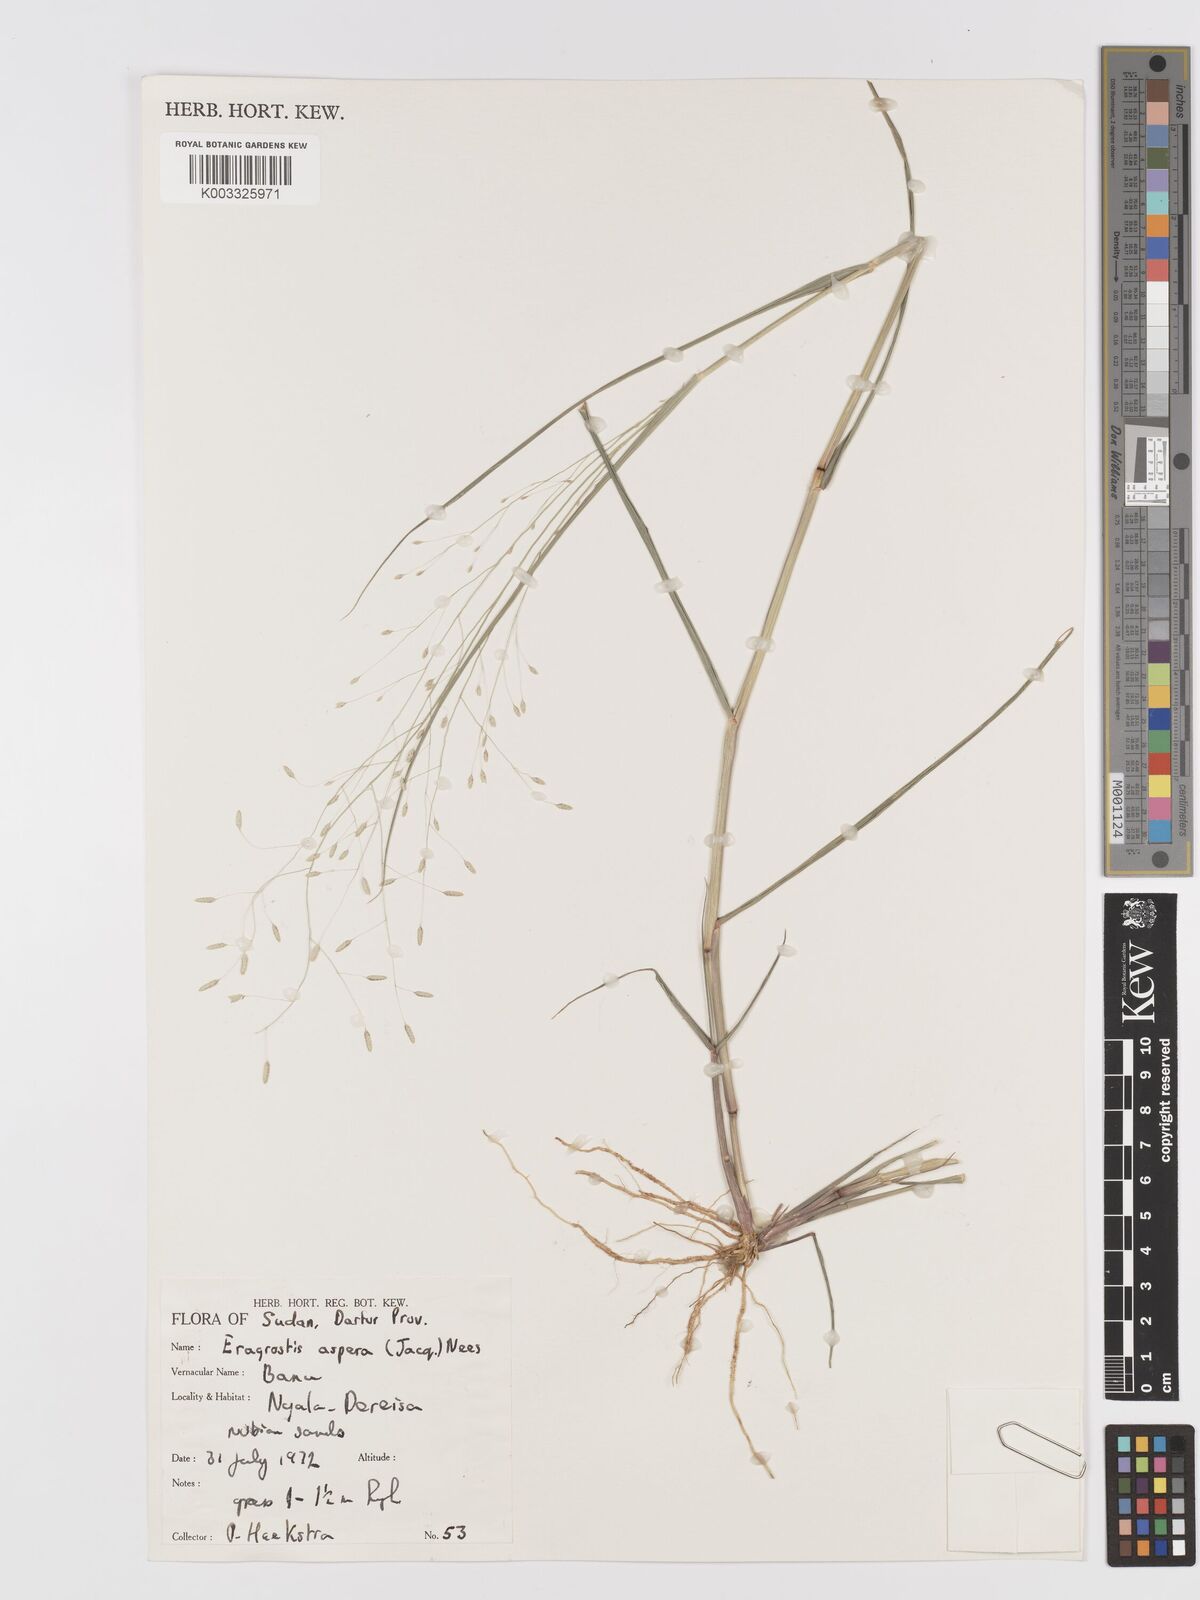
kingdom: Plantae
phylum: Tracheophyta
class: Liliopsida
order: Poales
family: Poaceae
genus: Eragrostis
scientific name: Eragrostis aspera
